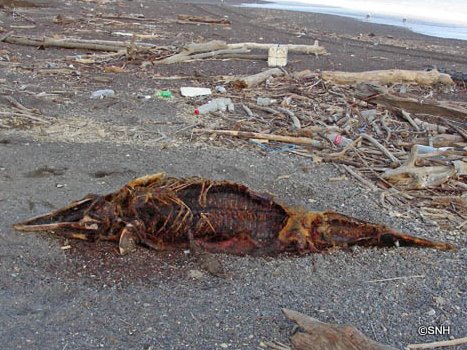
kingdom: Animalia
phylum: Chordata
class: Mammalia
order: Cetacea
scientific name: Cetacea
